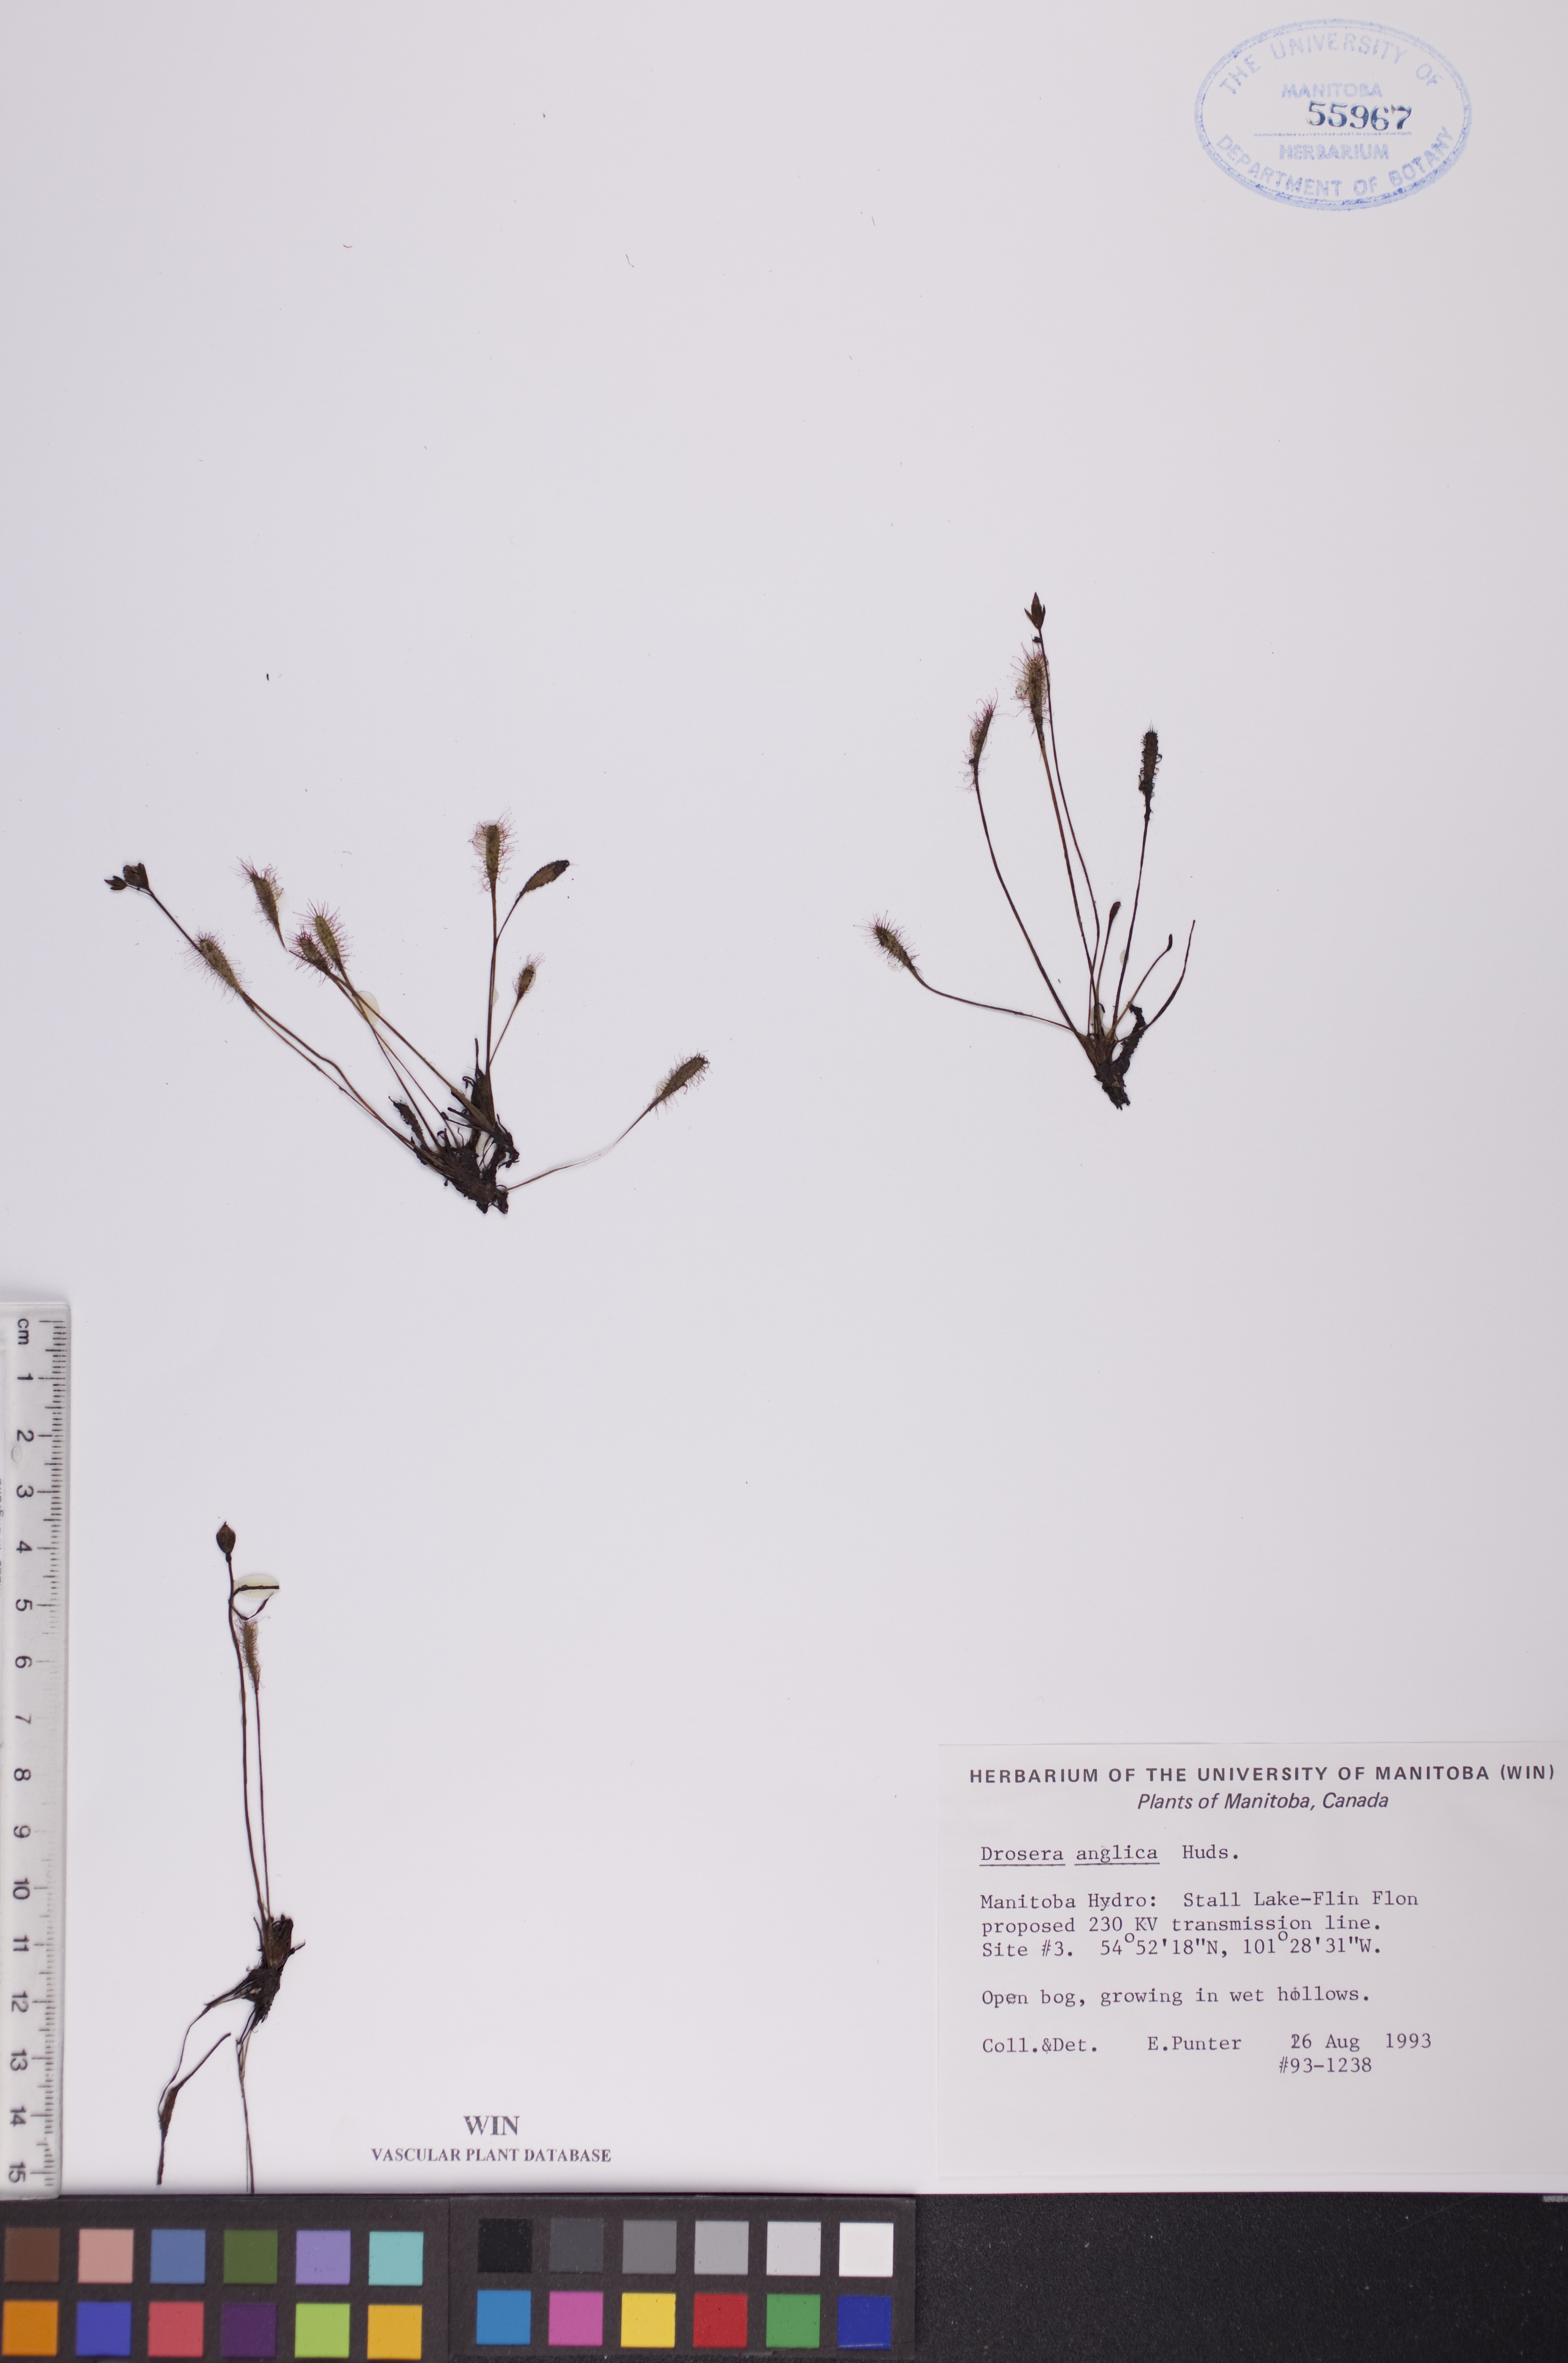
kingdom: Plantae
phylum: Tracheophyta
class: Magnoliopsida
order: Caryophyllales
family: Droseraceae
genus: Drosera
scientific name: Drosera anglica
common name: Great sundew
